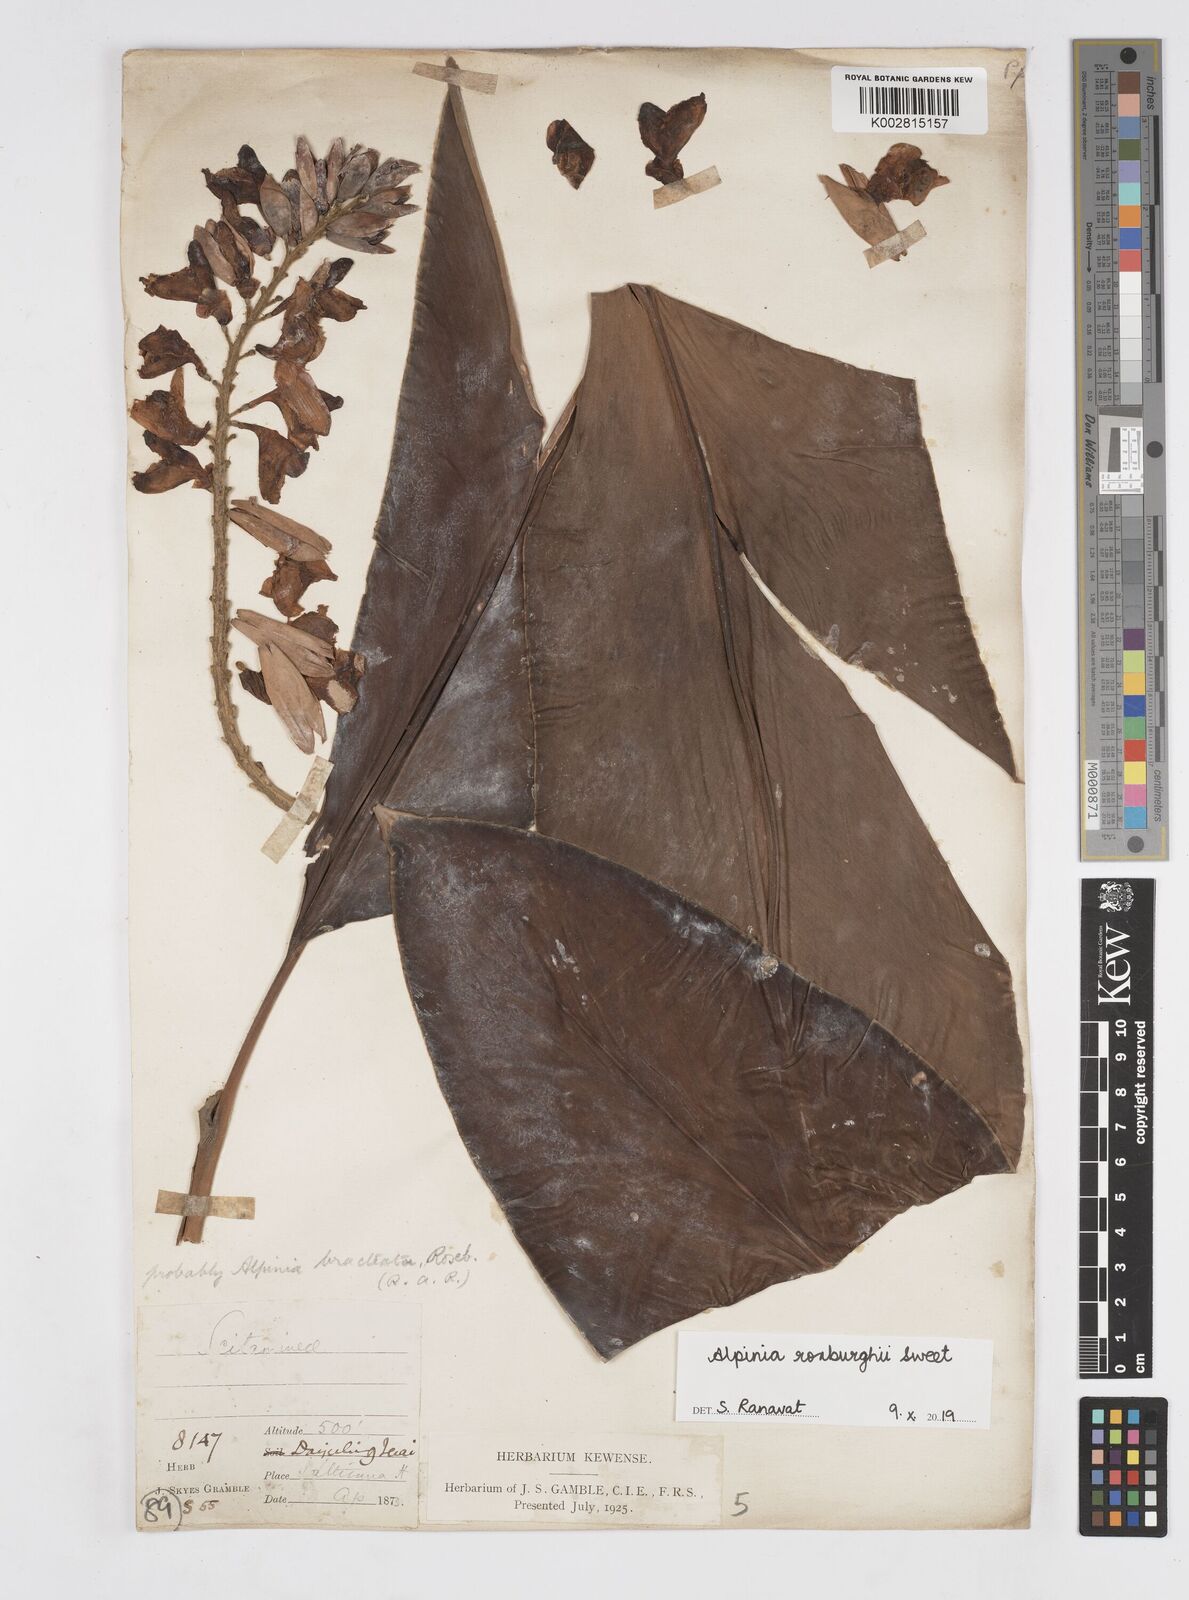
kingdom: Plantae
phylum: Tracheophyta
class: Liliopsida
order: Zingiberales
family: Zingiberaceae
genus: Alpinia
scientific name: Alpinia roxburghii
